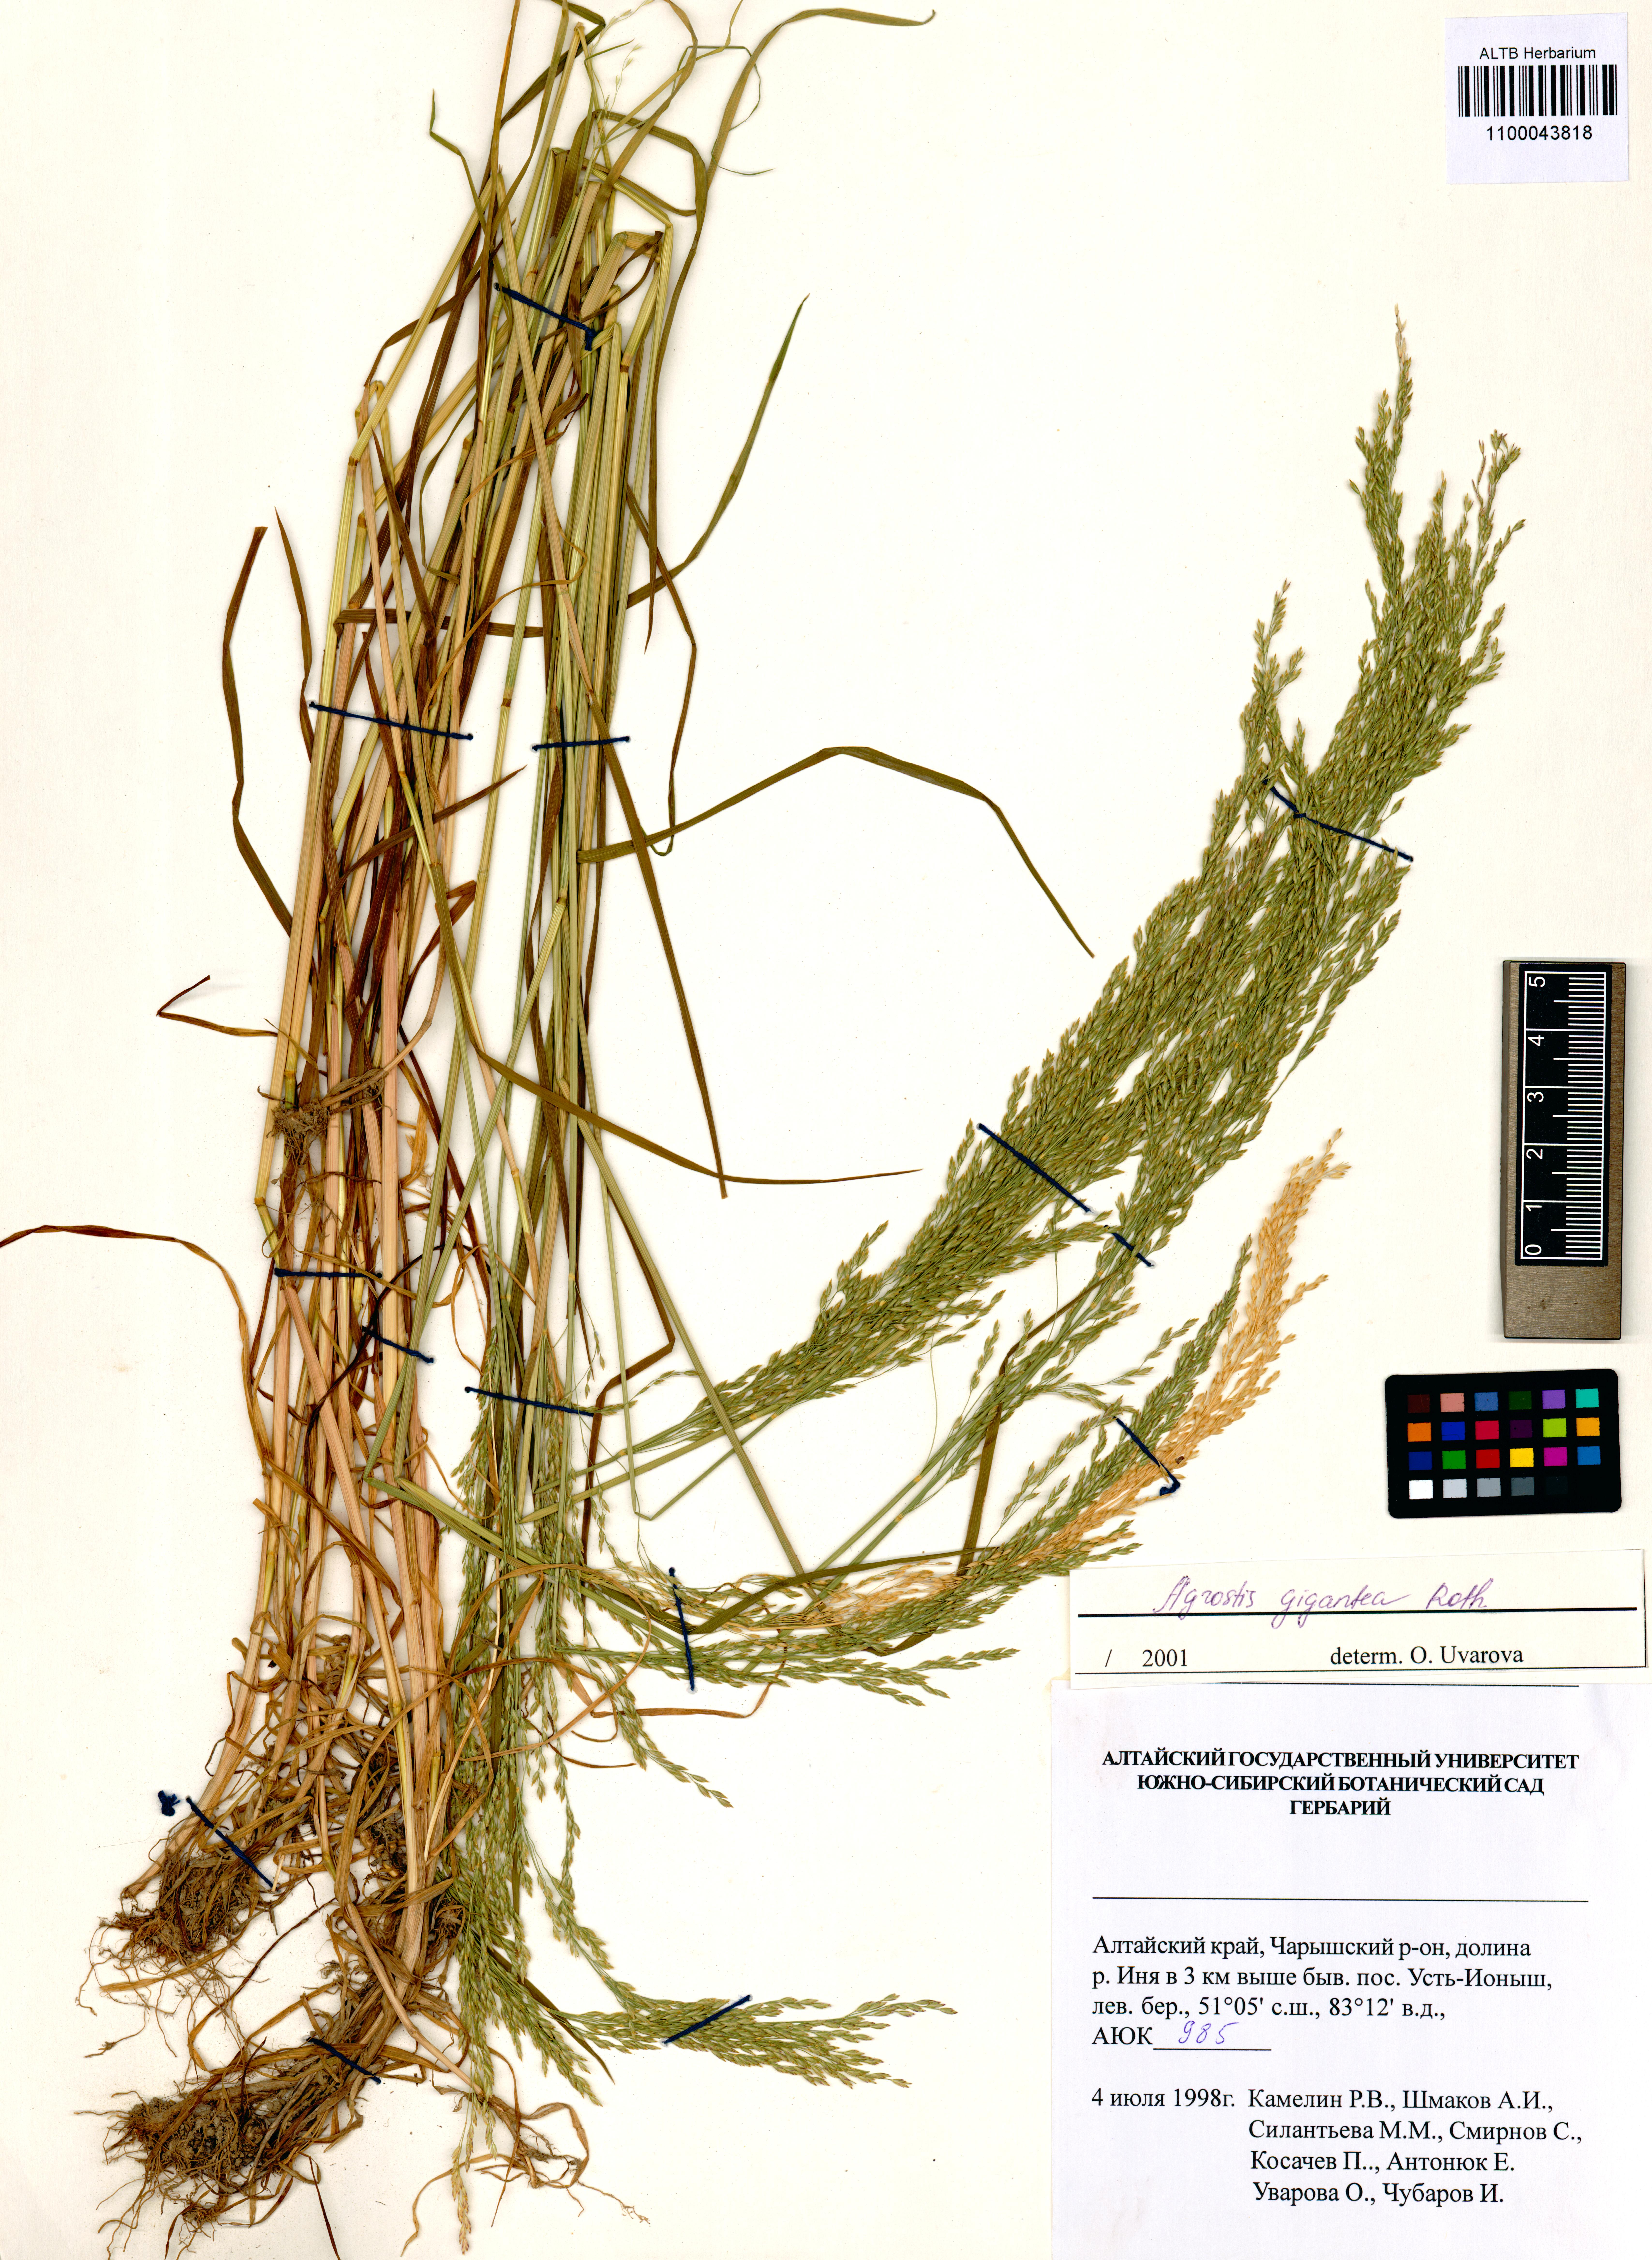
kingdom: Plantae
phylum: Tracheophyta
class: Liliopsida
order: Poales
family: Poaceae
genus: Agrostis
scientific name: Agrostis gigantea
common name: Black bent
